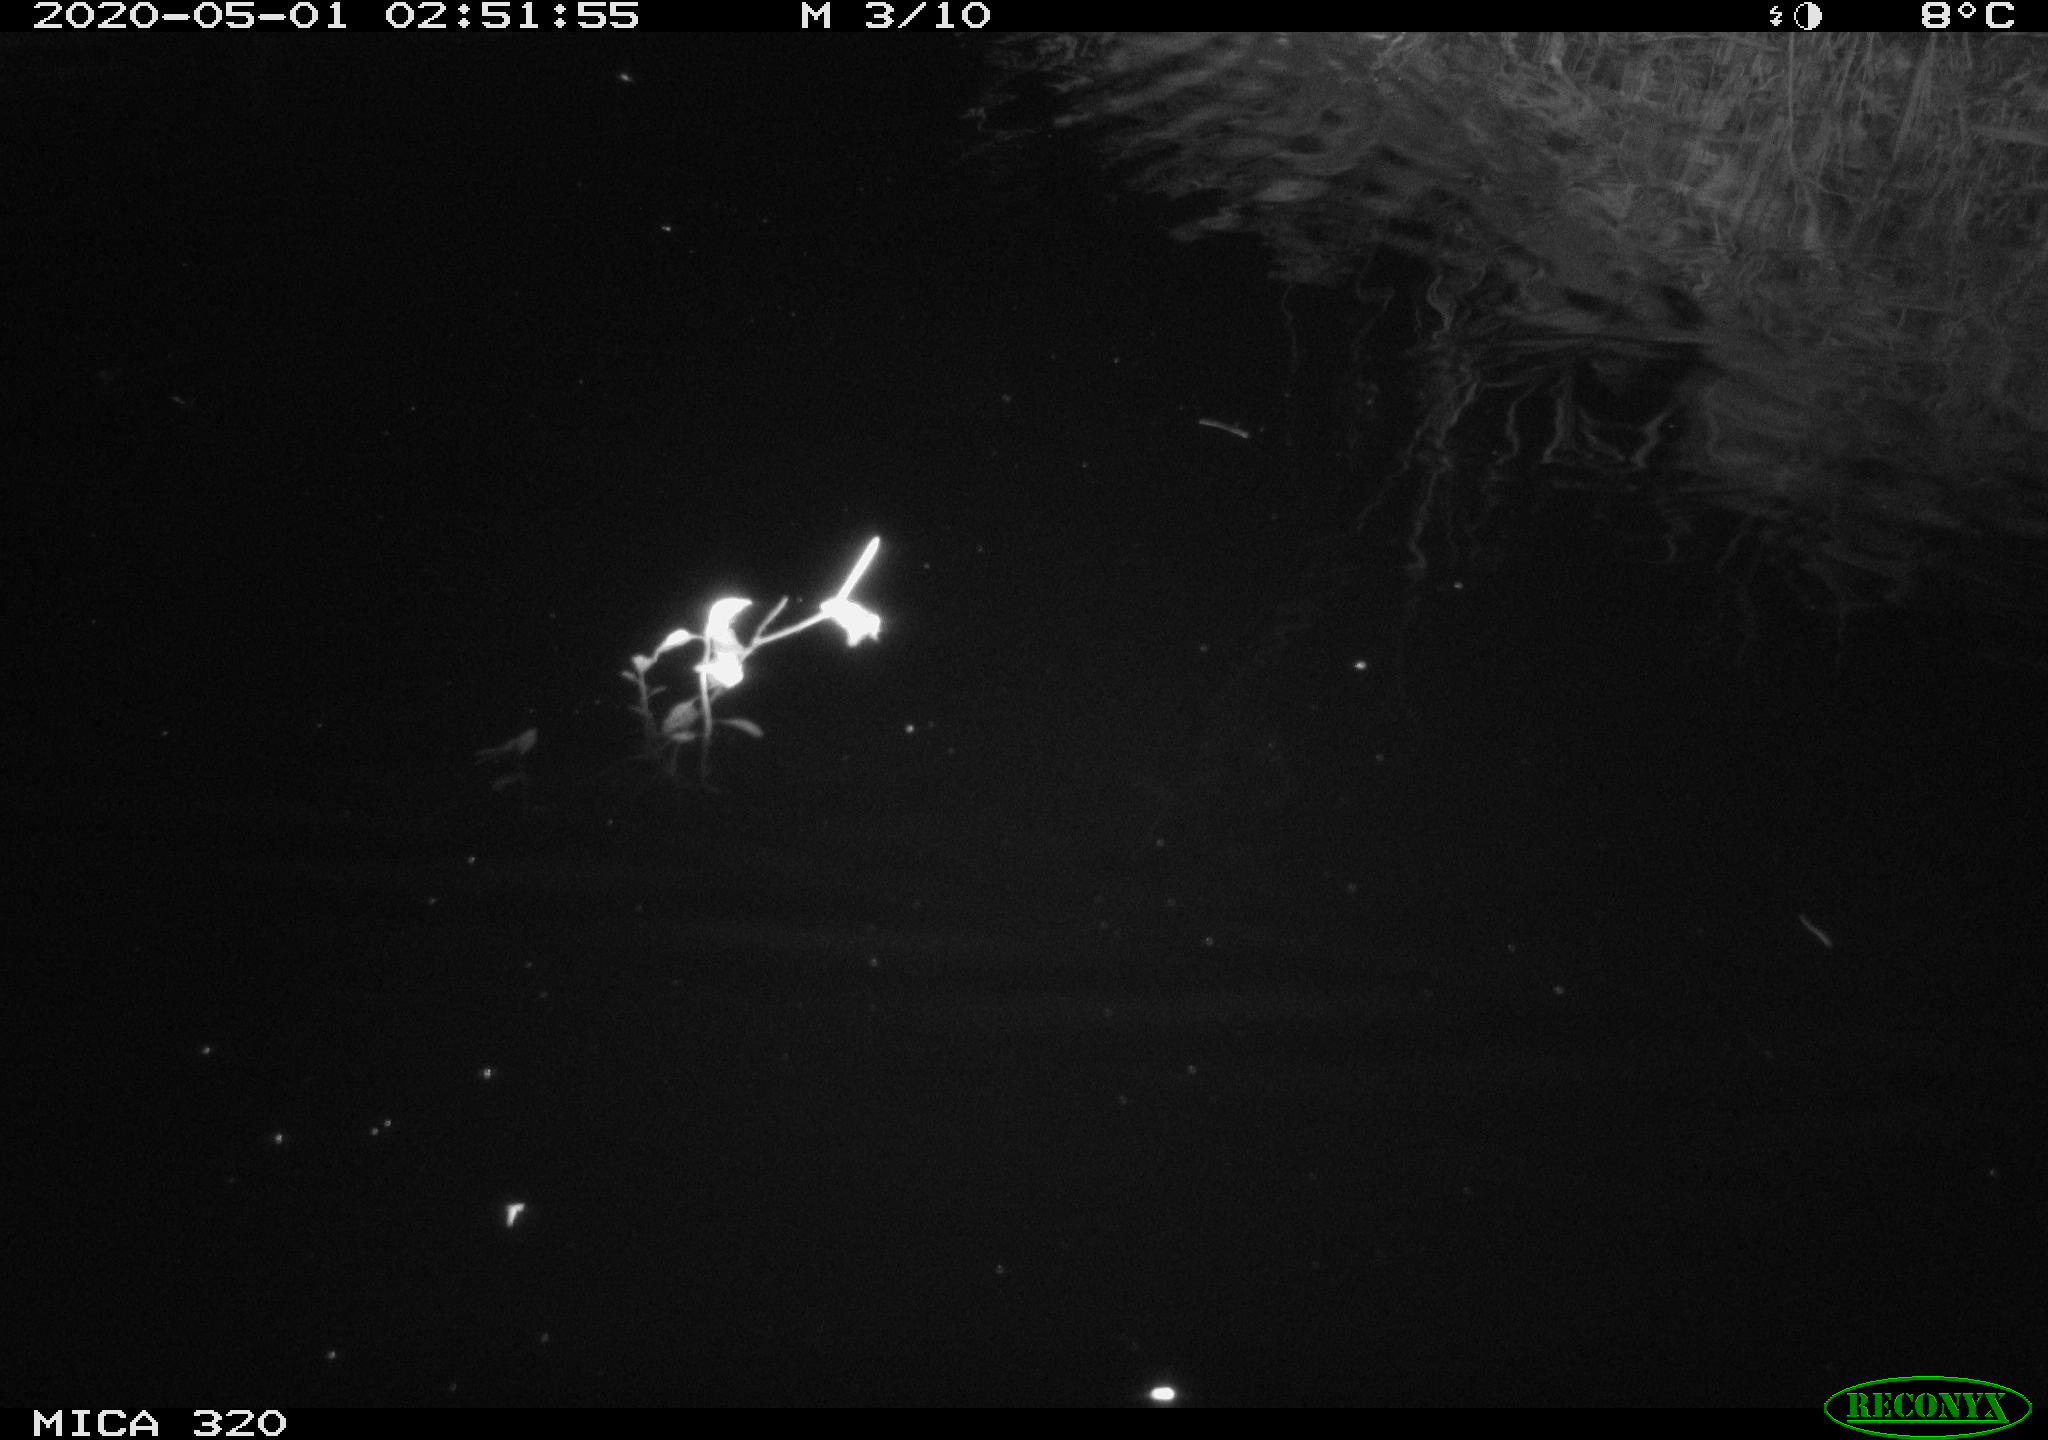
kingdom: Animalia
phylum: Chordata
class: Aves
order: Anseriformes
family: Anatidae
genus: Anas
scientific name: Anas platyrhynchos
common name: Mallard
